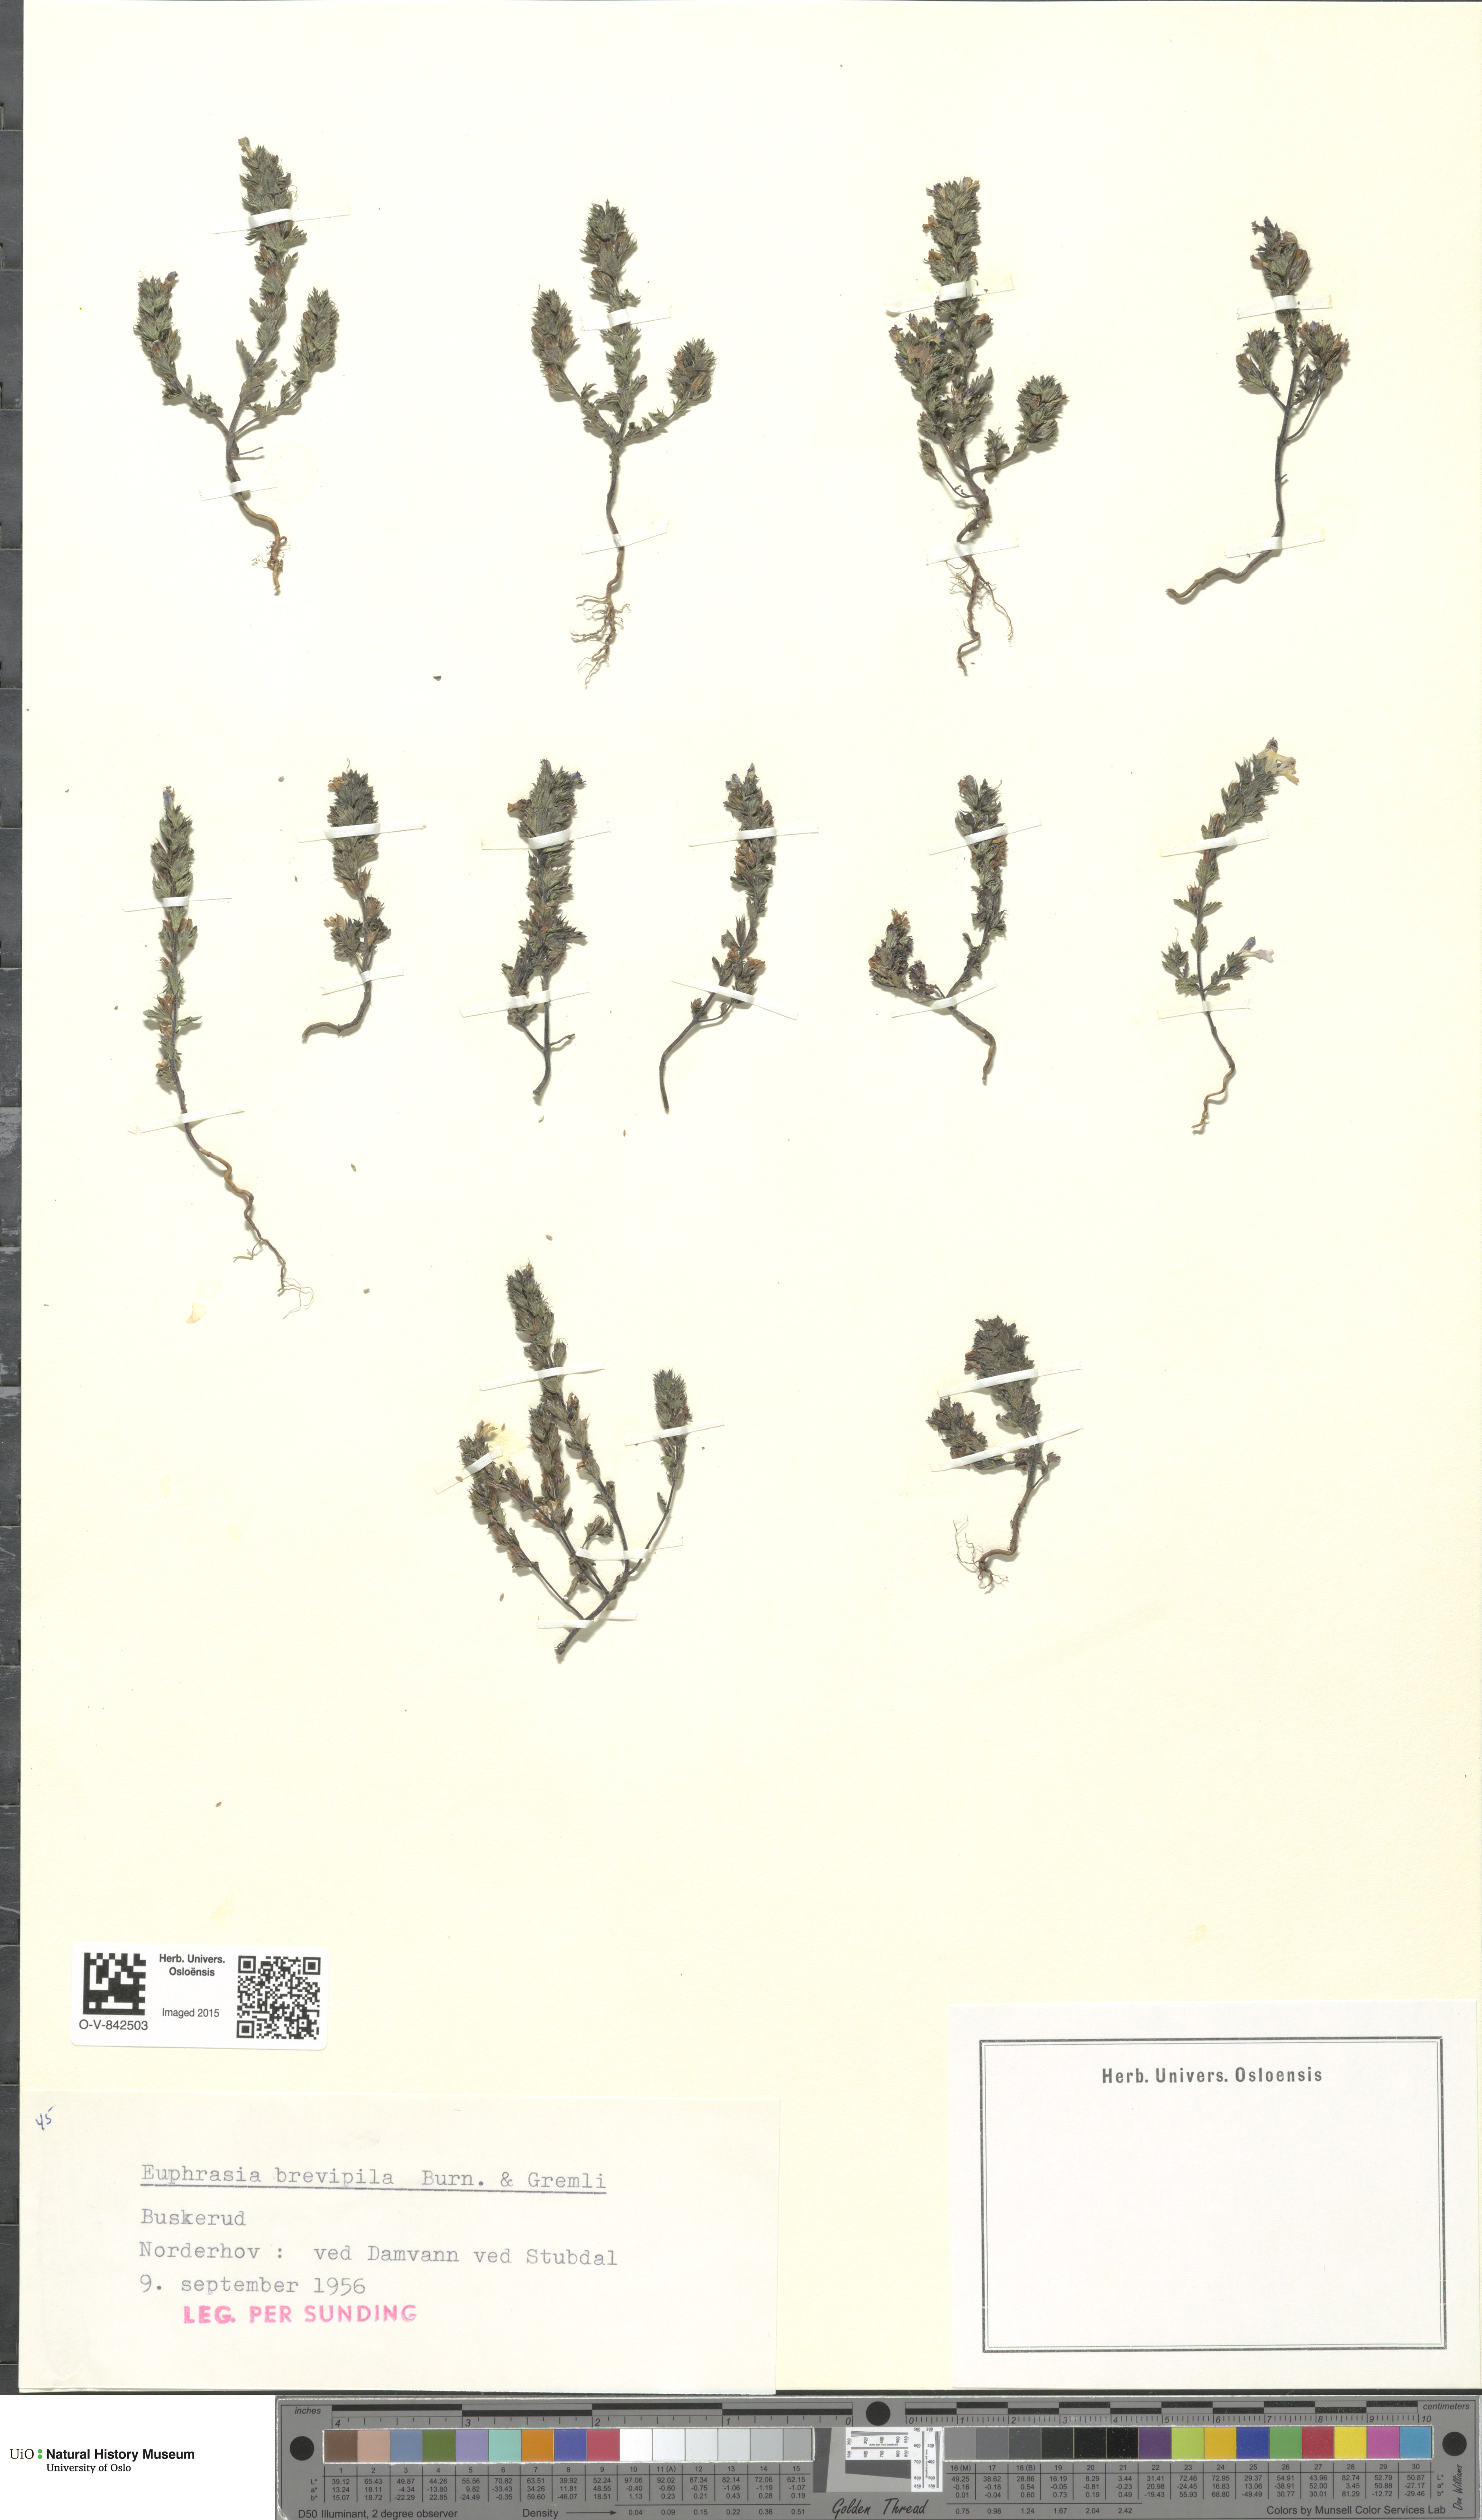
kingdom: Plantae
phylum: Tracheophyta
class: Magnoliopsida
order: Lamiales
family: Orobanchaceae
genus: Euphrasia
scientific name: Euphrasia vernalis
